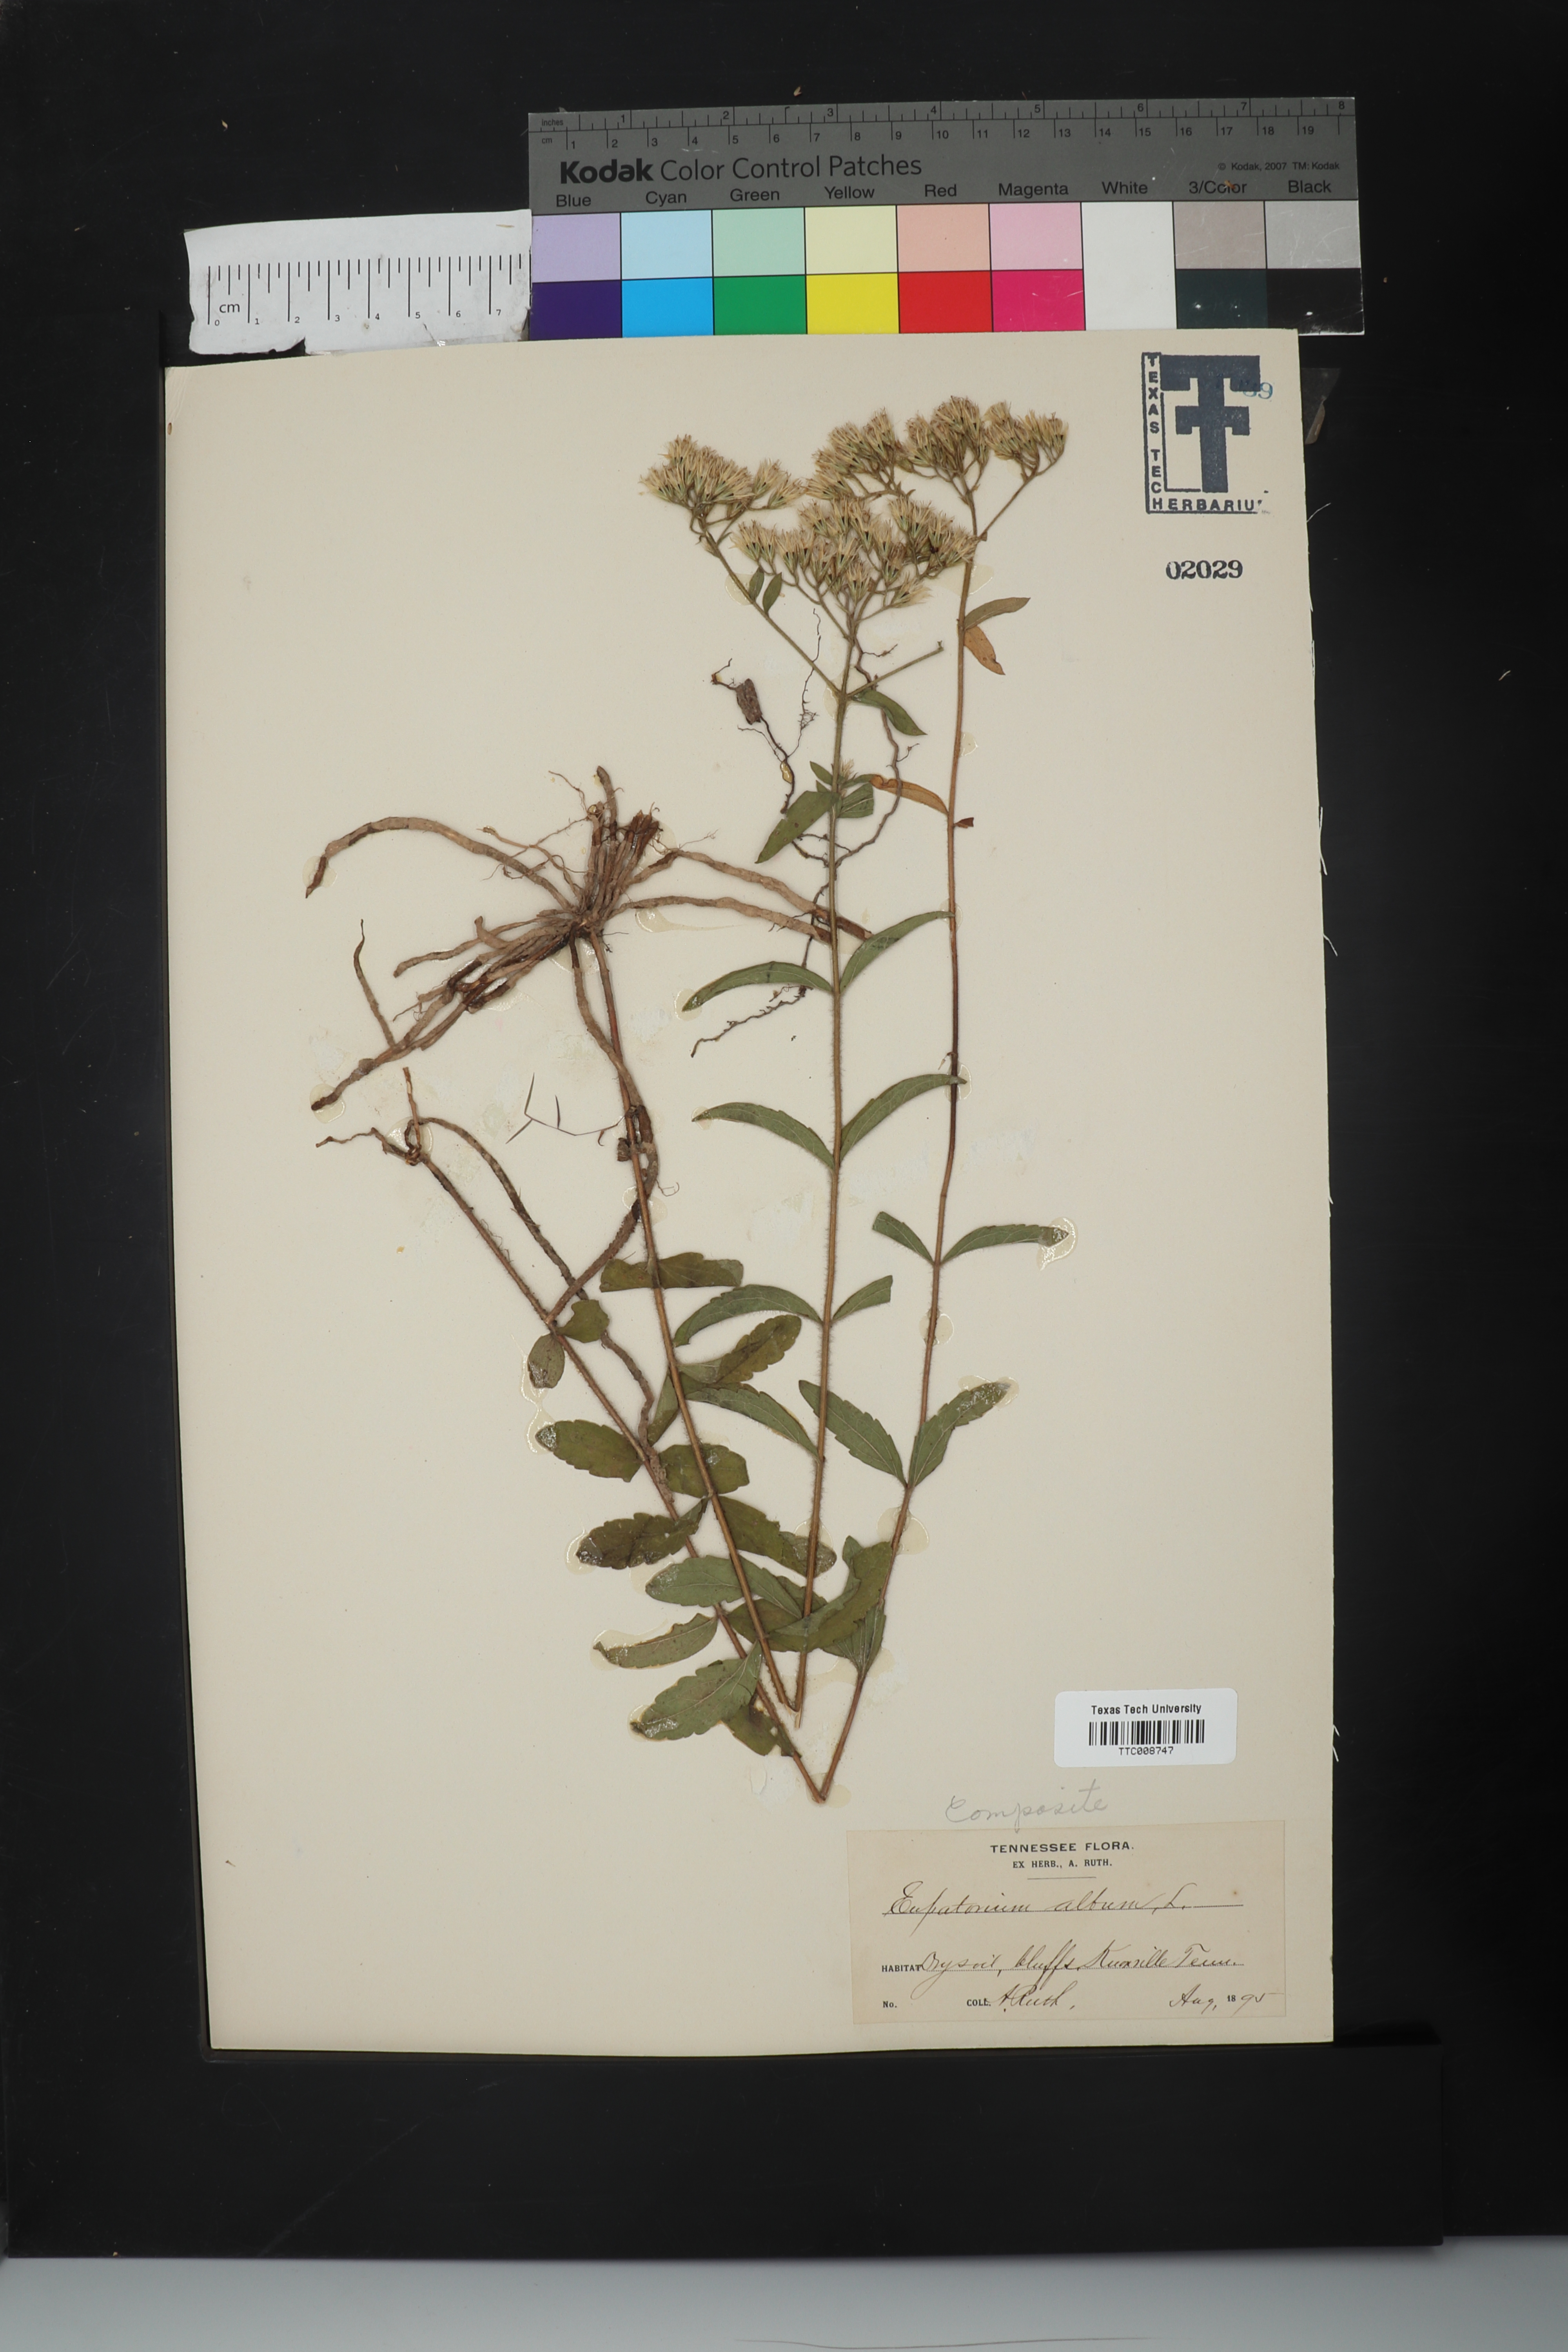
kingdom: Plantae
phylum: Tracheophyta
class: Magnoliopsida
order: Asterales
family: Asteraceae
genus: Eupatorium
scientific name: Eupatorium album
